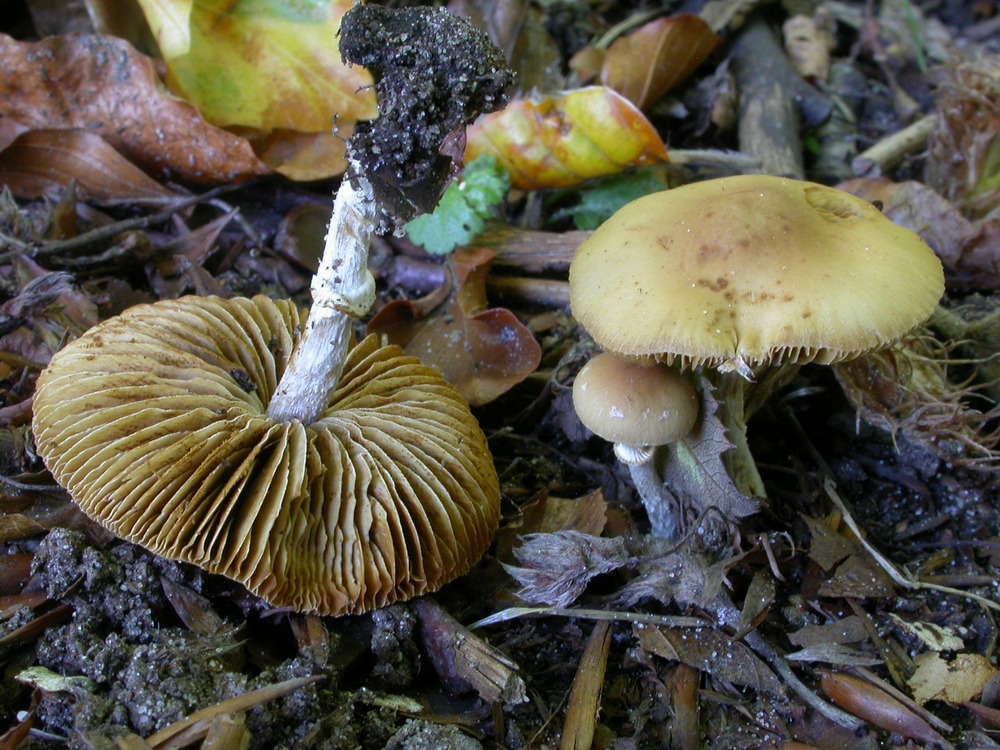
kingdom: Fungi
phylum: Basidiomycota
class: Agaricomycetes
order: Agaricales
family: Bolbitiaceae
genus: Conocybe
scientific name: Conocybe arrhenii
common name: ring-dansehat
